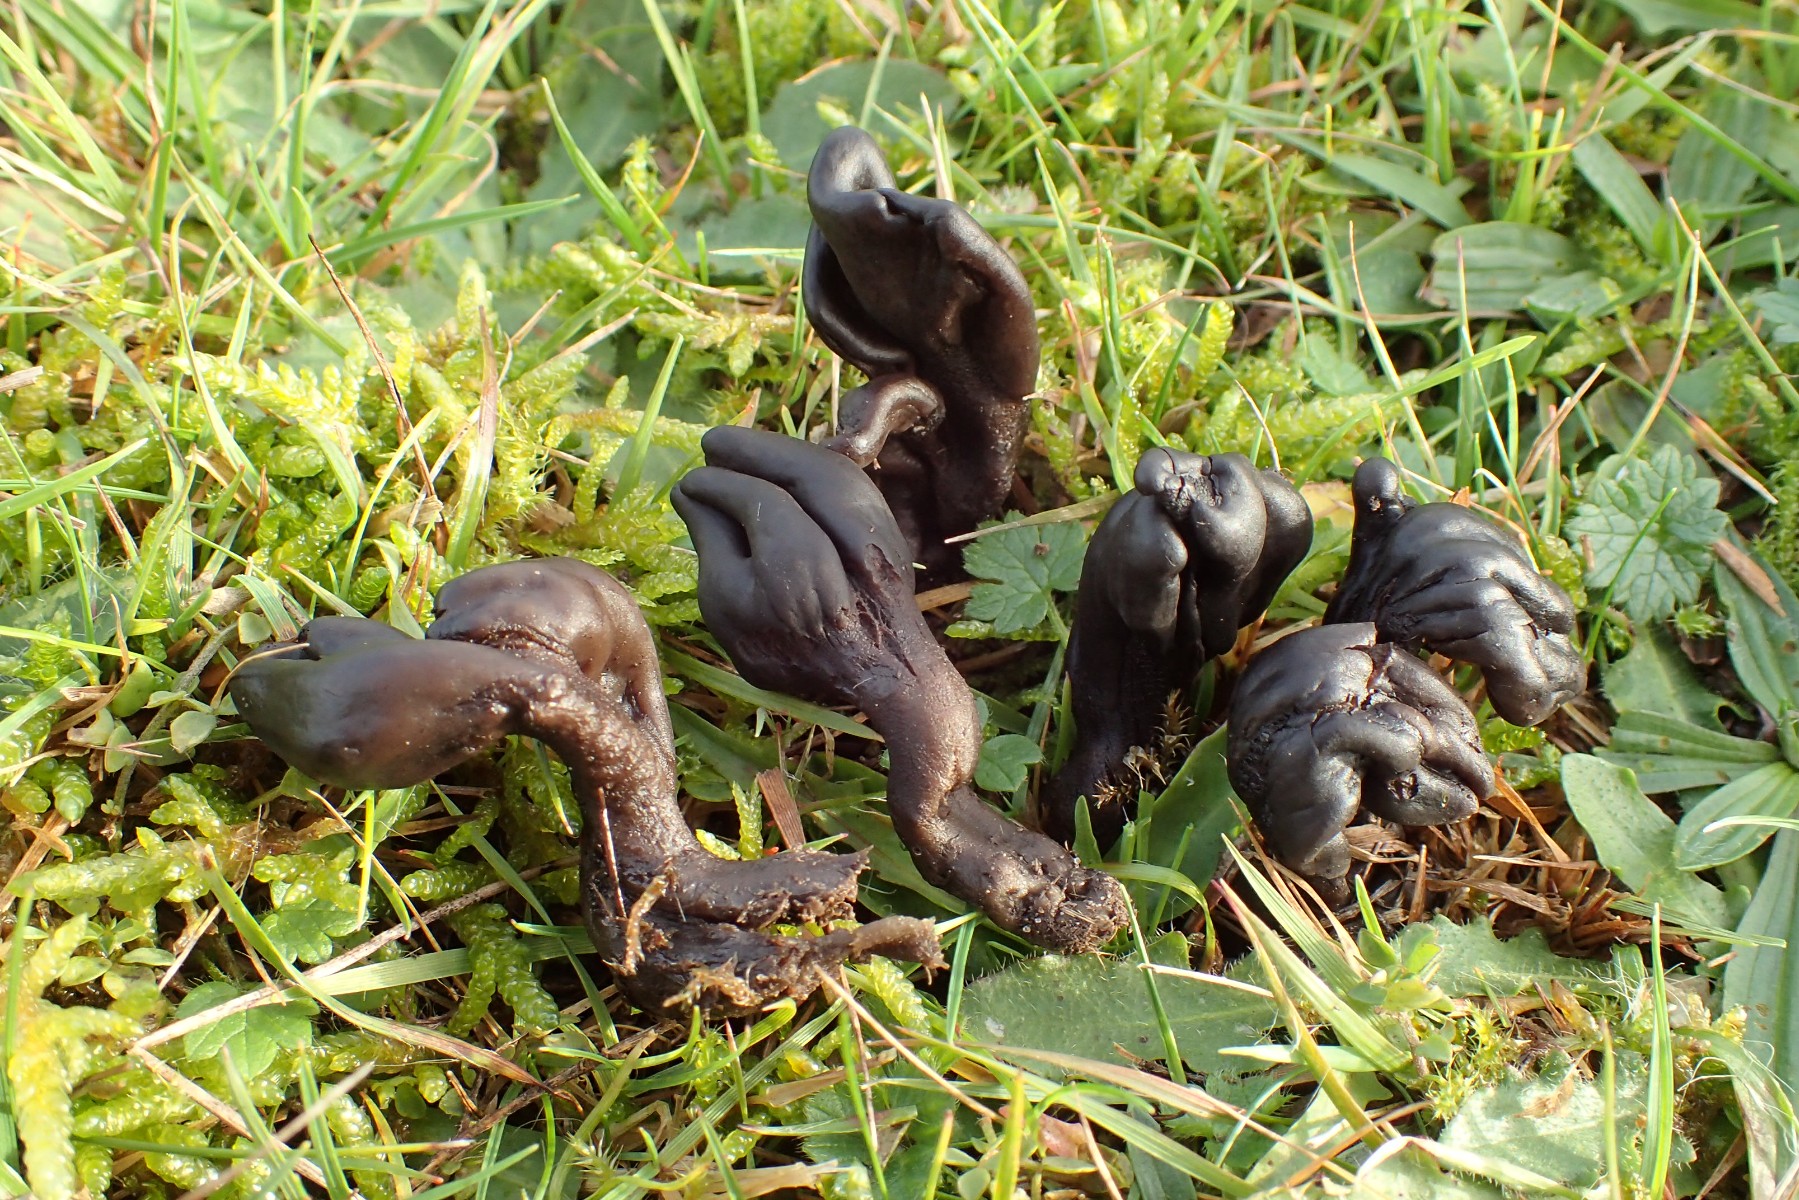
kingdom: Fungi
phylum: Ascomycota
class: Geoglossomycetes
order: Geoglossales
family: Geoglossaceae
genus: Geoglossum
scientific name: Geoglossum atropurpureum
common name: purpursort farvetunge
